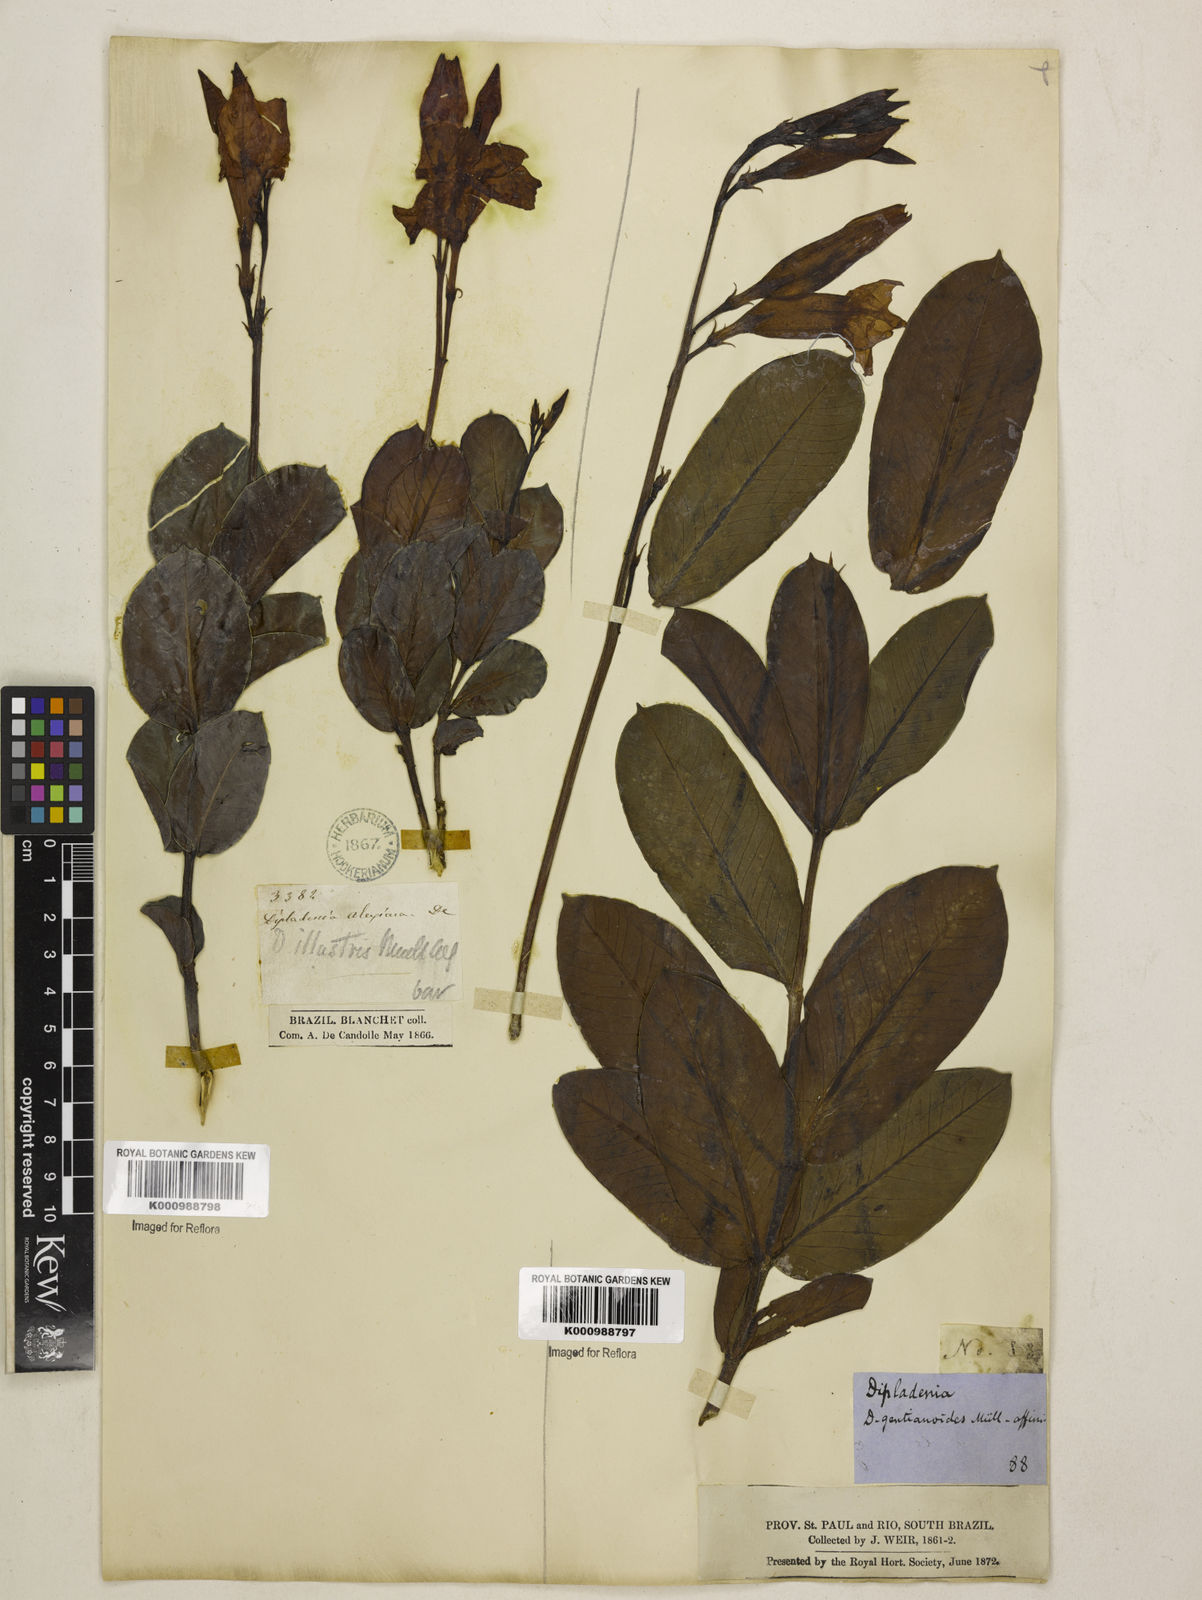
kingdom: Plantae
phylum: Tracheophyta
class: Magnoliopsida
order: Gentianales
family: Apocynaceae
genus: Mandevilla
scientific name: Mandevilla pohliana
